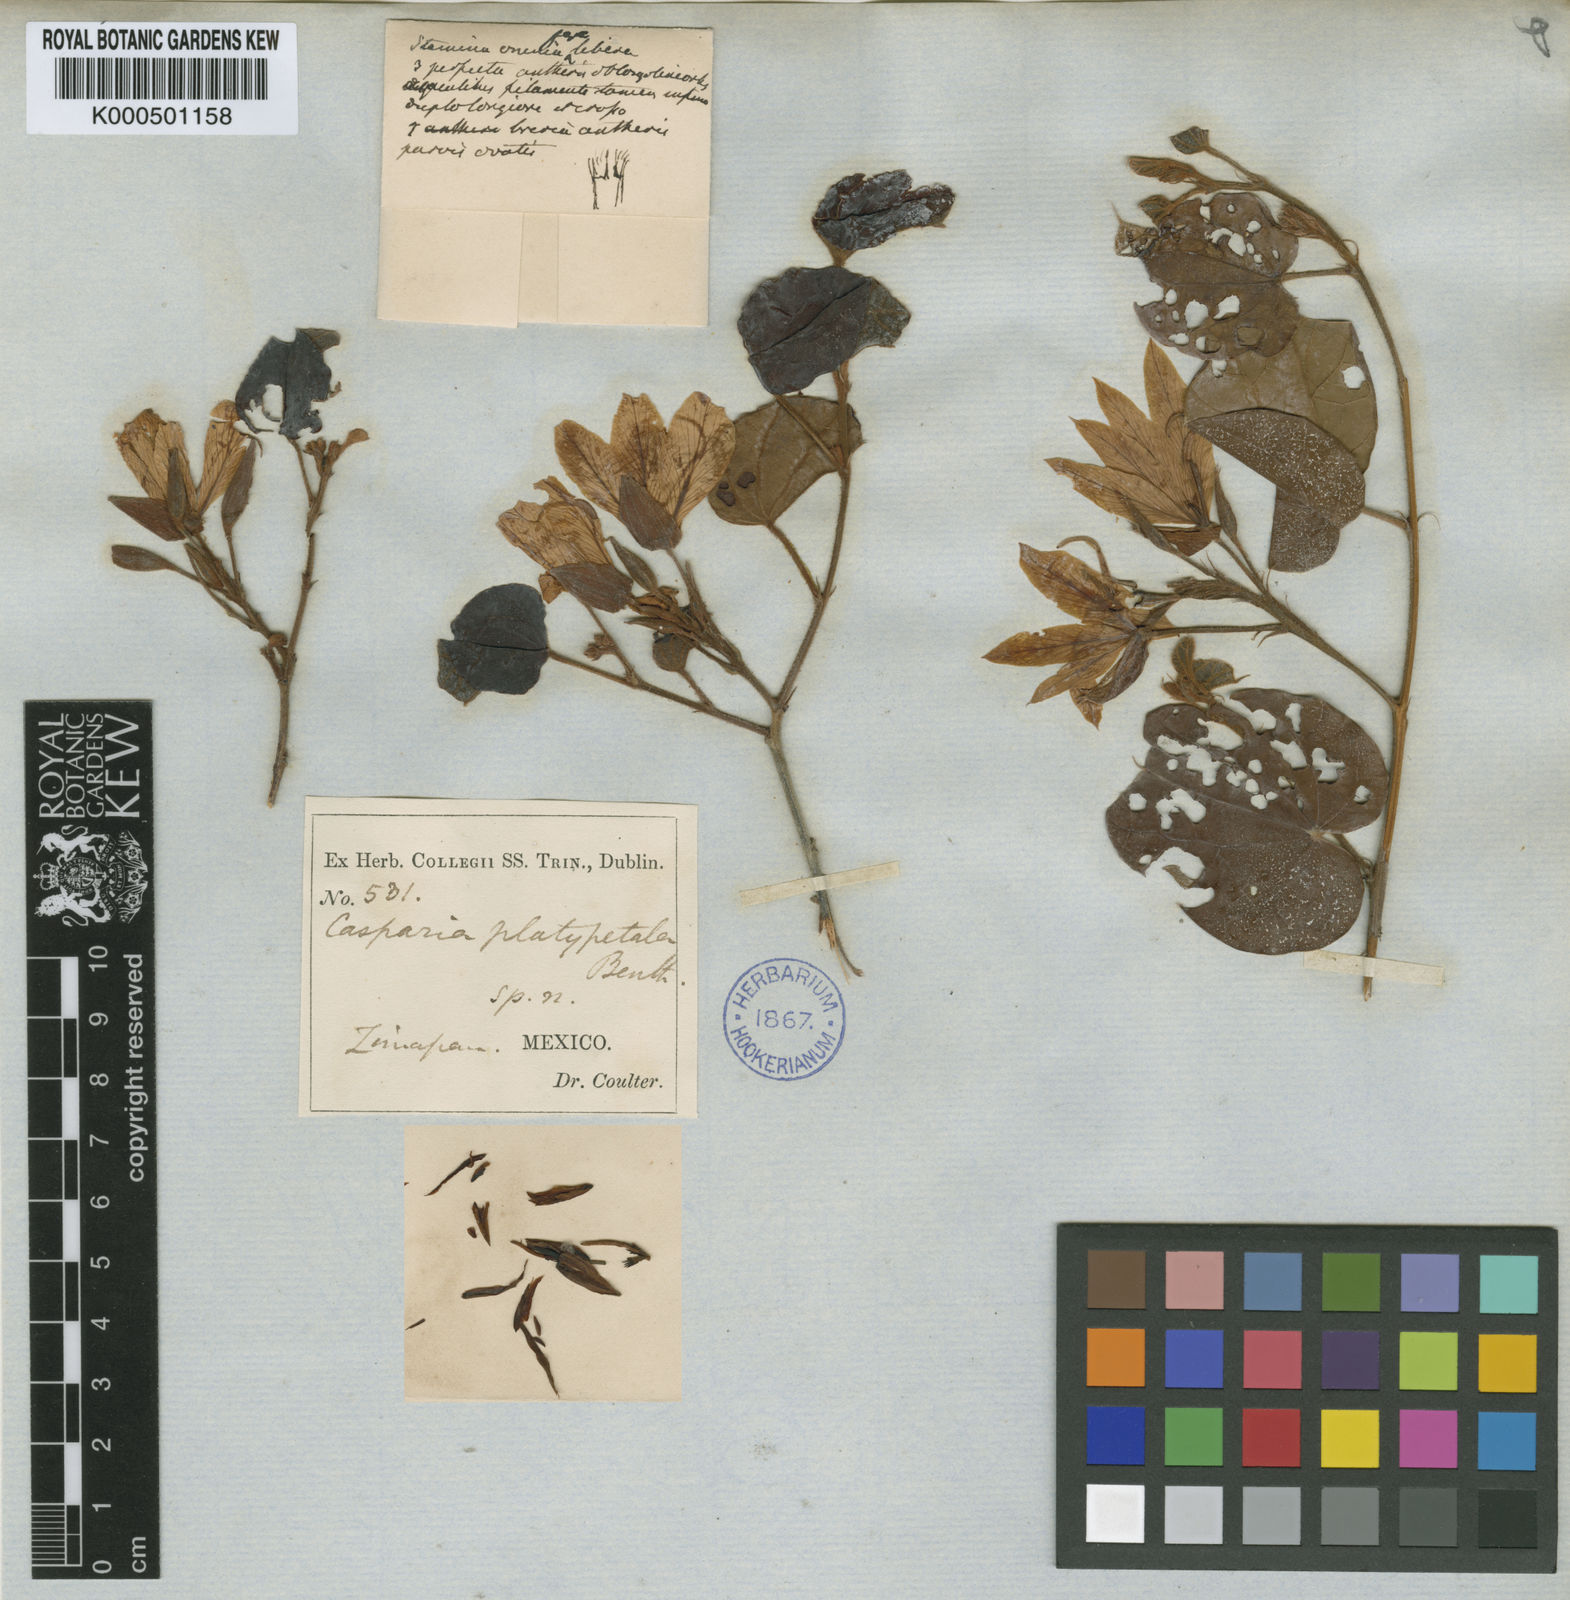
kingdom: Plantae
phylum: Tracheophyta
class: Magnoliopsida
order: Fabales
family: Fabaceae
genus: Bauhinia
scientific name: Bauhinia platypetala
